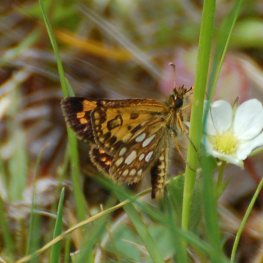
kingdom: Animalia
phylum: Arthropoda
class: Insecta
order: Lepidoptera
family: Hesperiidae
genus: Carterocephalus
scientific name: Carterocephalus palaemon
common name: Chequered Skipper
